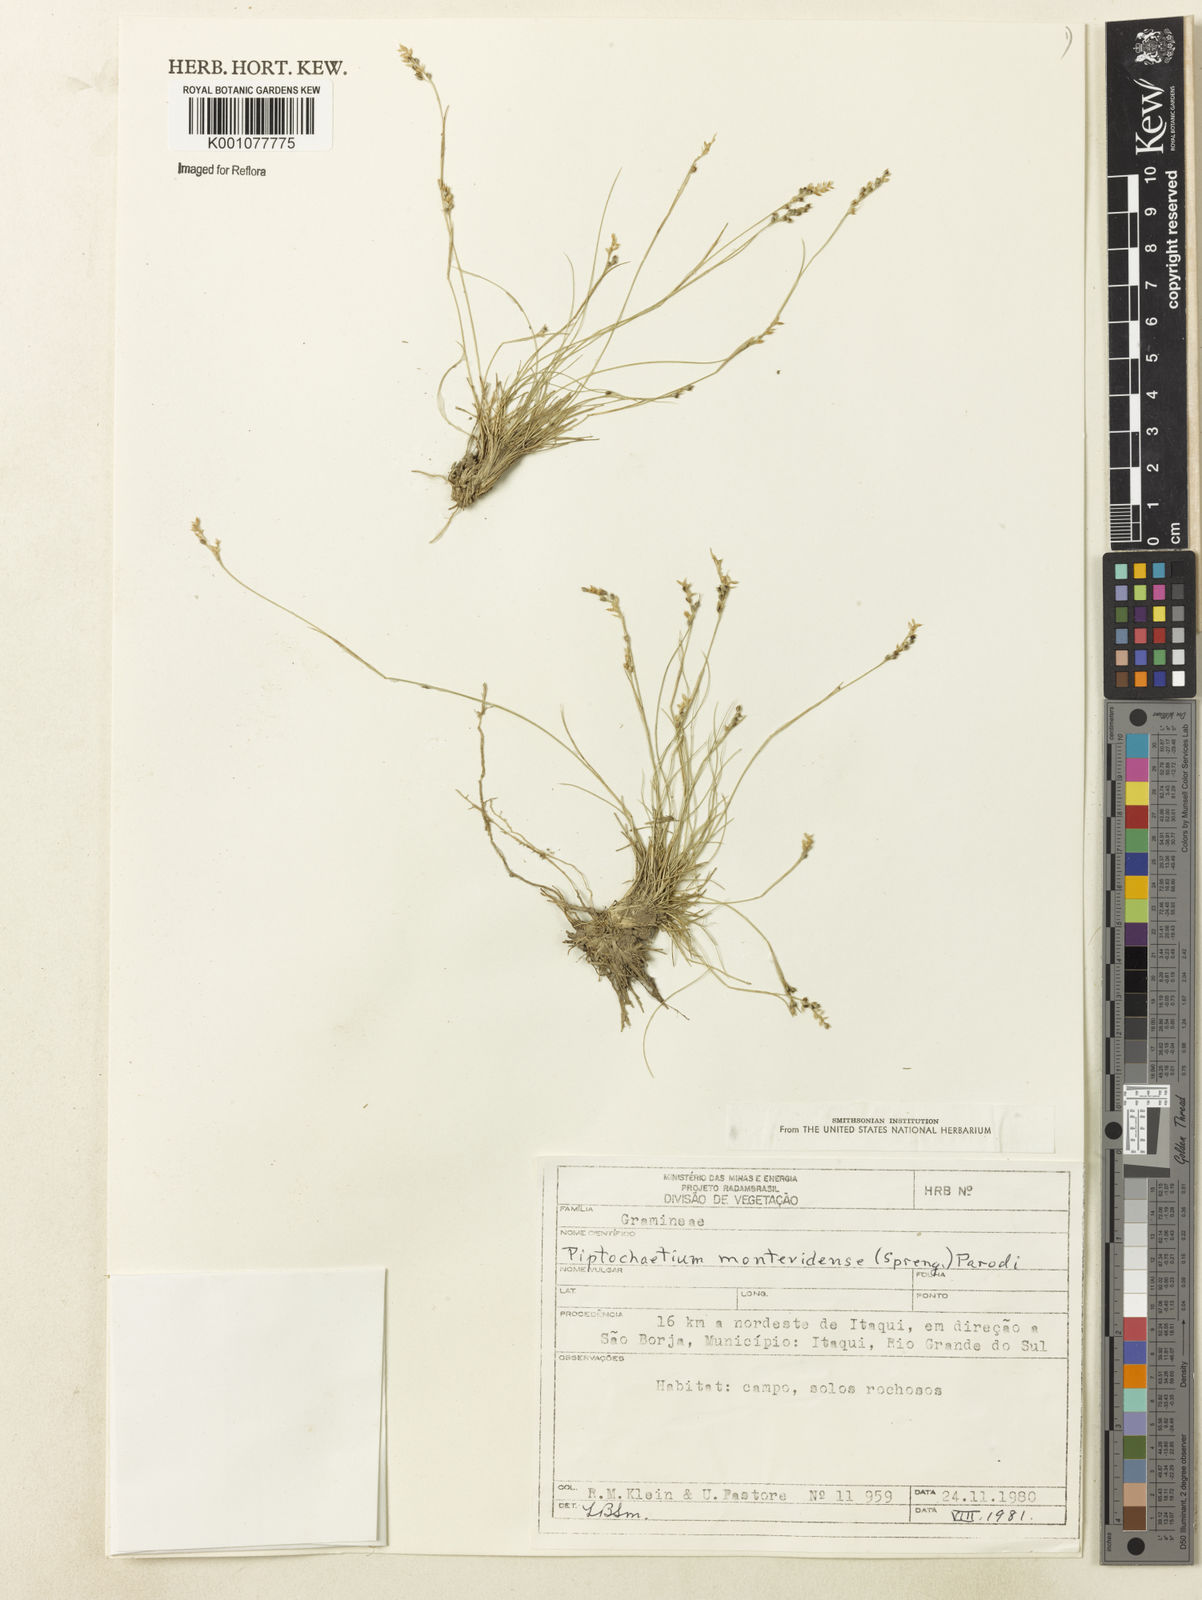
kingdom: Plantae
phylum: Tracheophyta
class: Liliopsida
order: Poales
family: Poaceae
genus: Piptochaetium
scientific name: Piptochaetium montevidense
